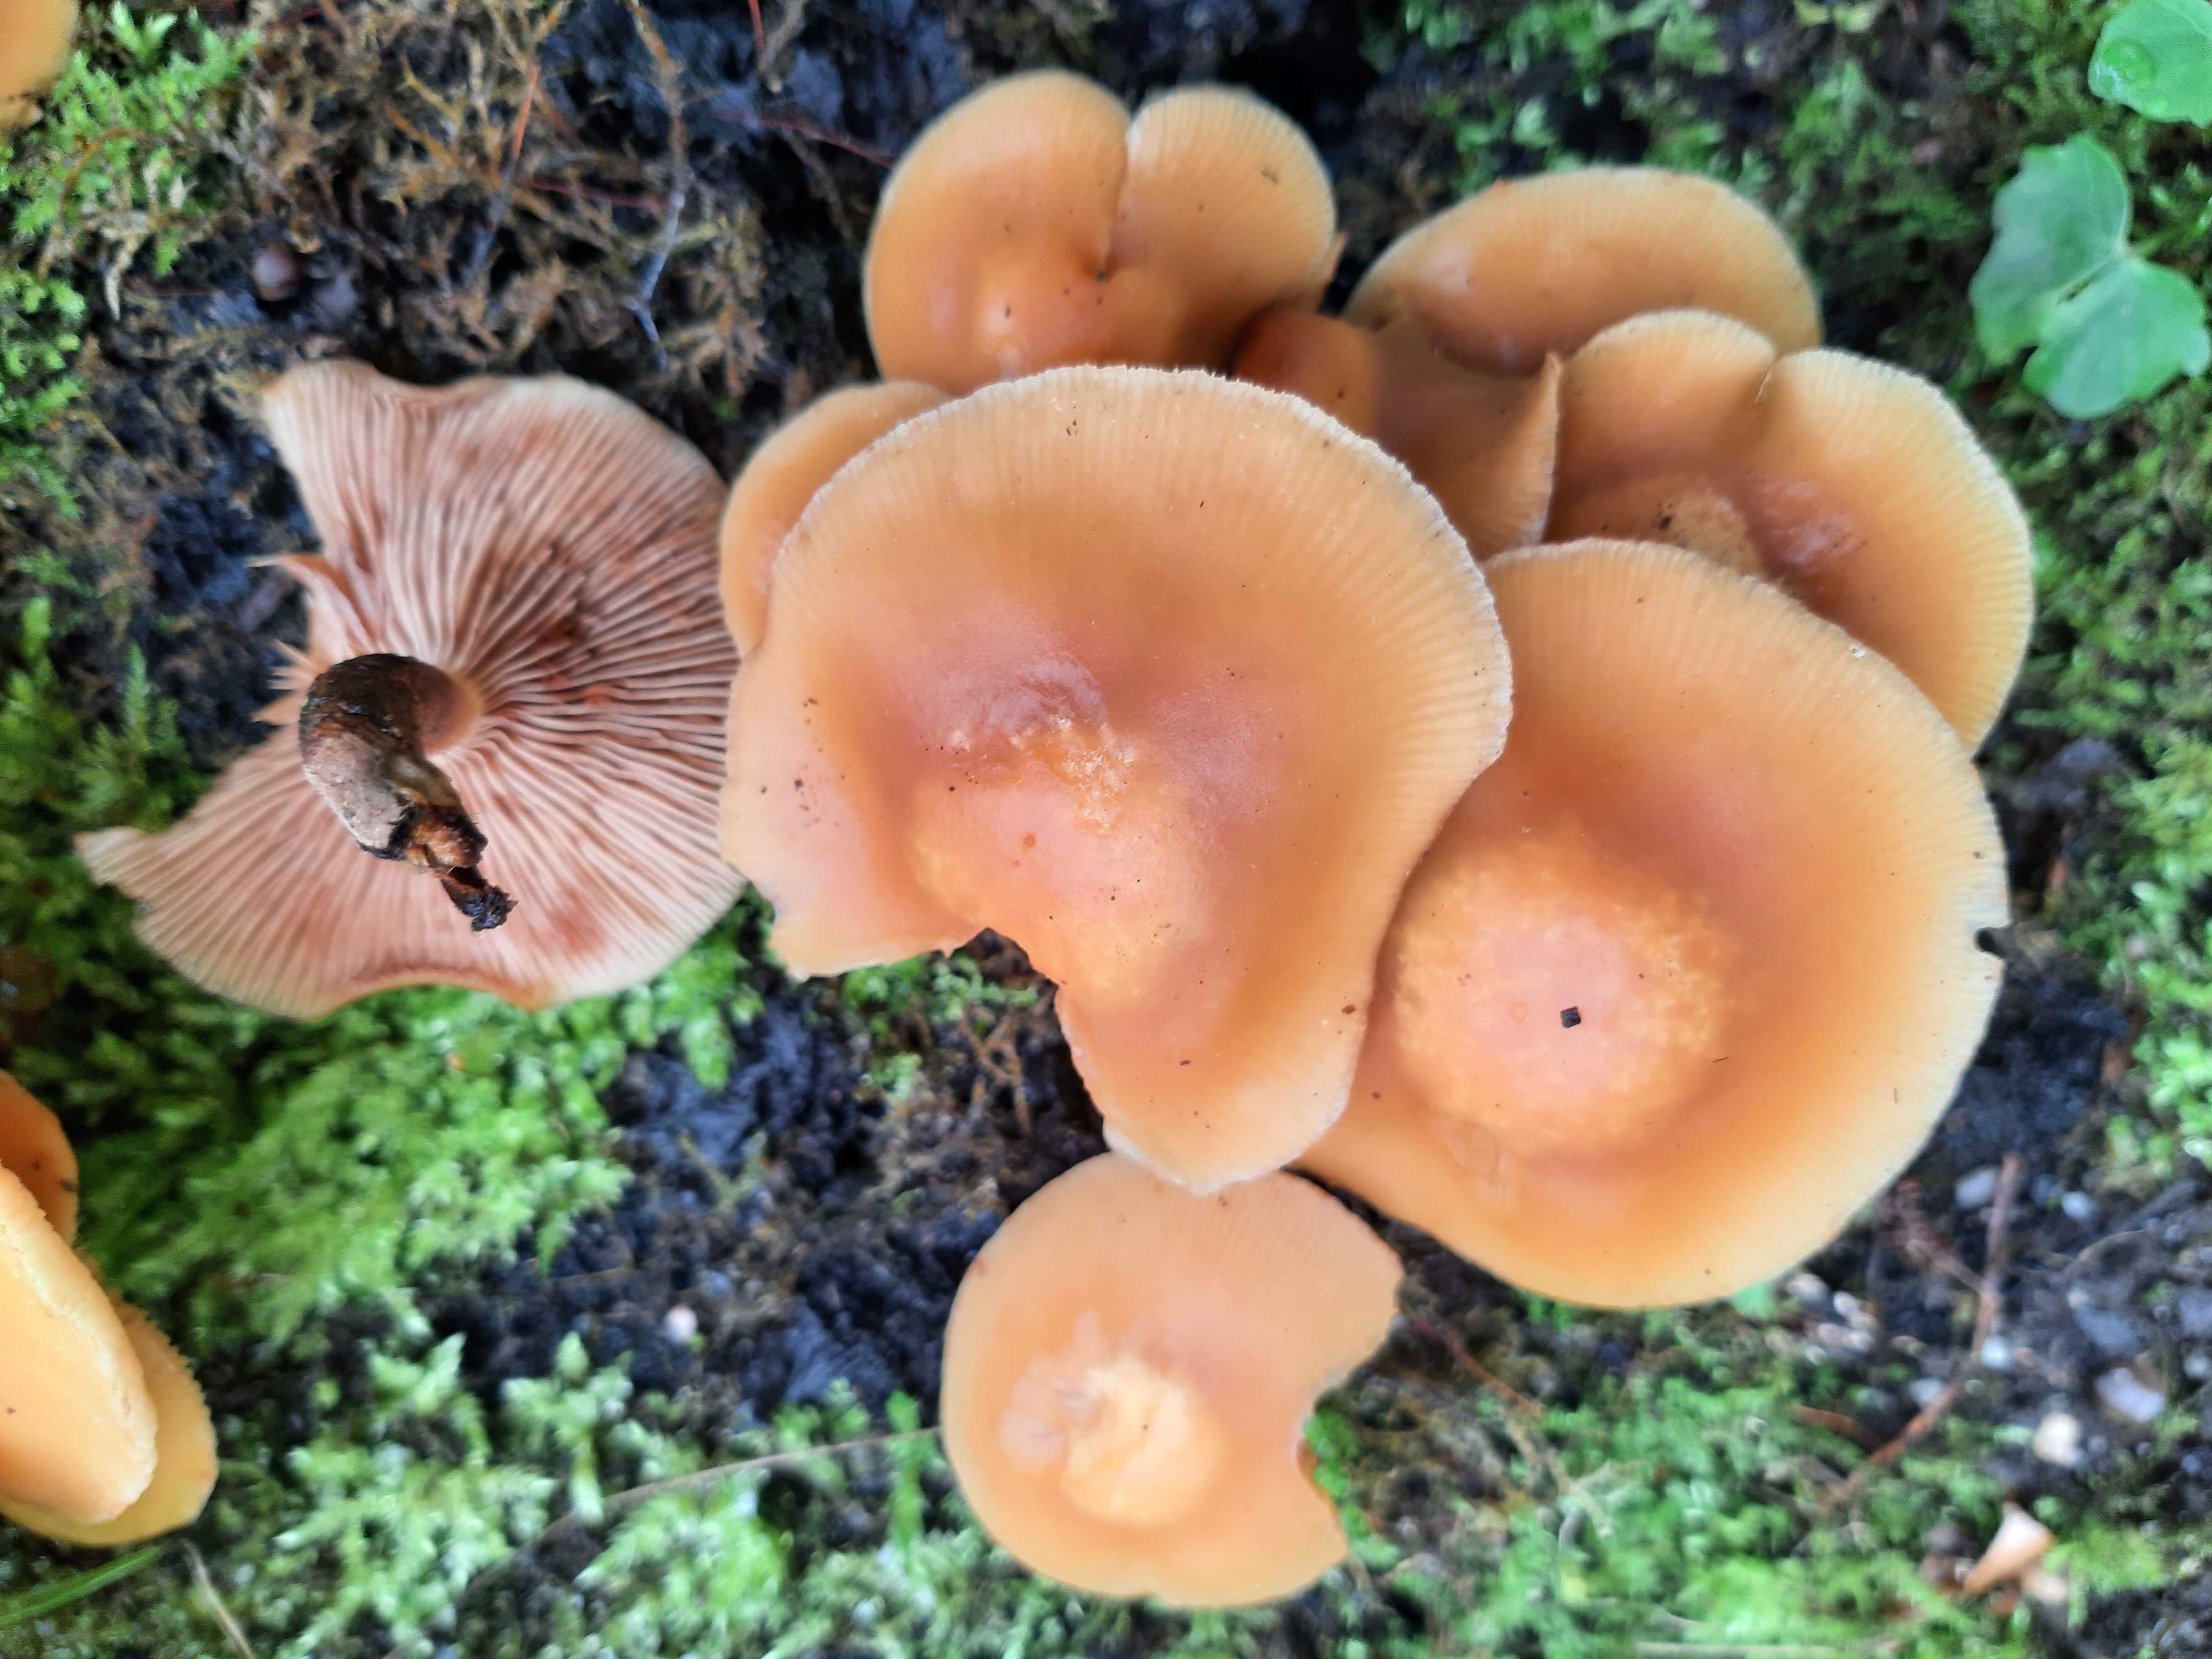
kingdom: Fungi
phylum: Basidiomycota
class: Agaricomycetes
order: Agaricales
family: Strophariaceae
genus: Kuehneromyces
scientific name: Kuehneromyces mutabilis
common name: foranderlig skælhat
